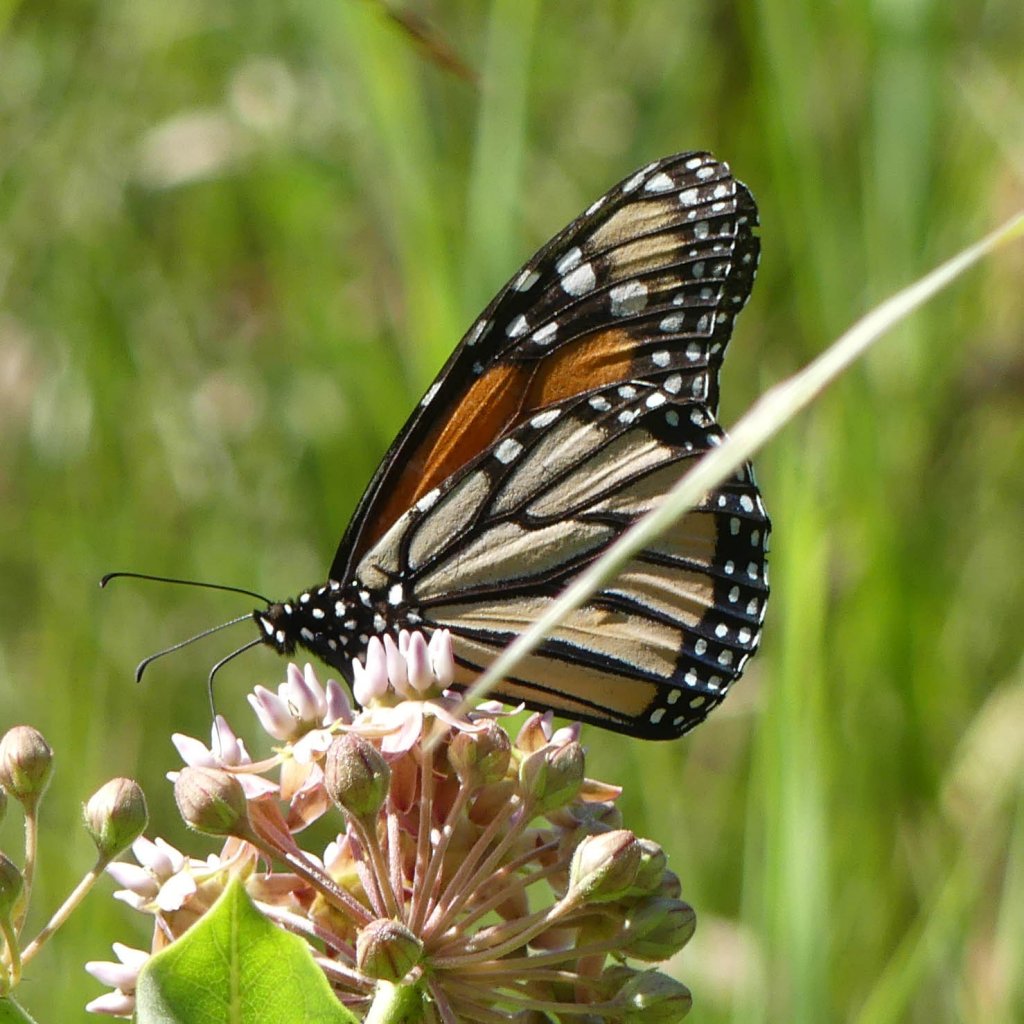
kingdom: Animalia
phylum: Arthropoda
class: Insecta
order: Lepidoptera
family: Nymphalidae
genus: Danaus
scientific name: Danaus plexippus
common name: Monarch
